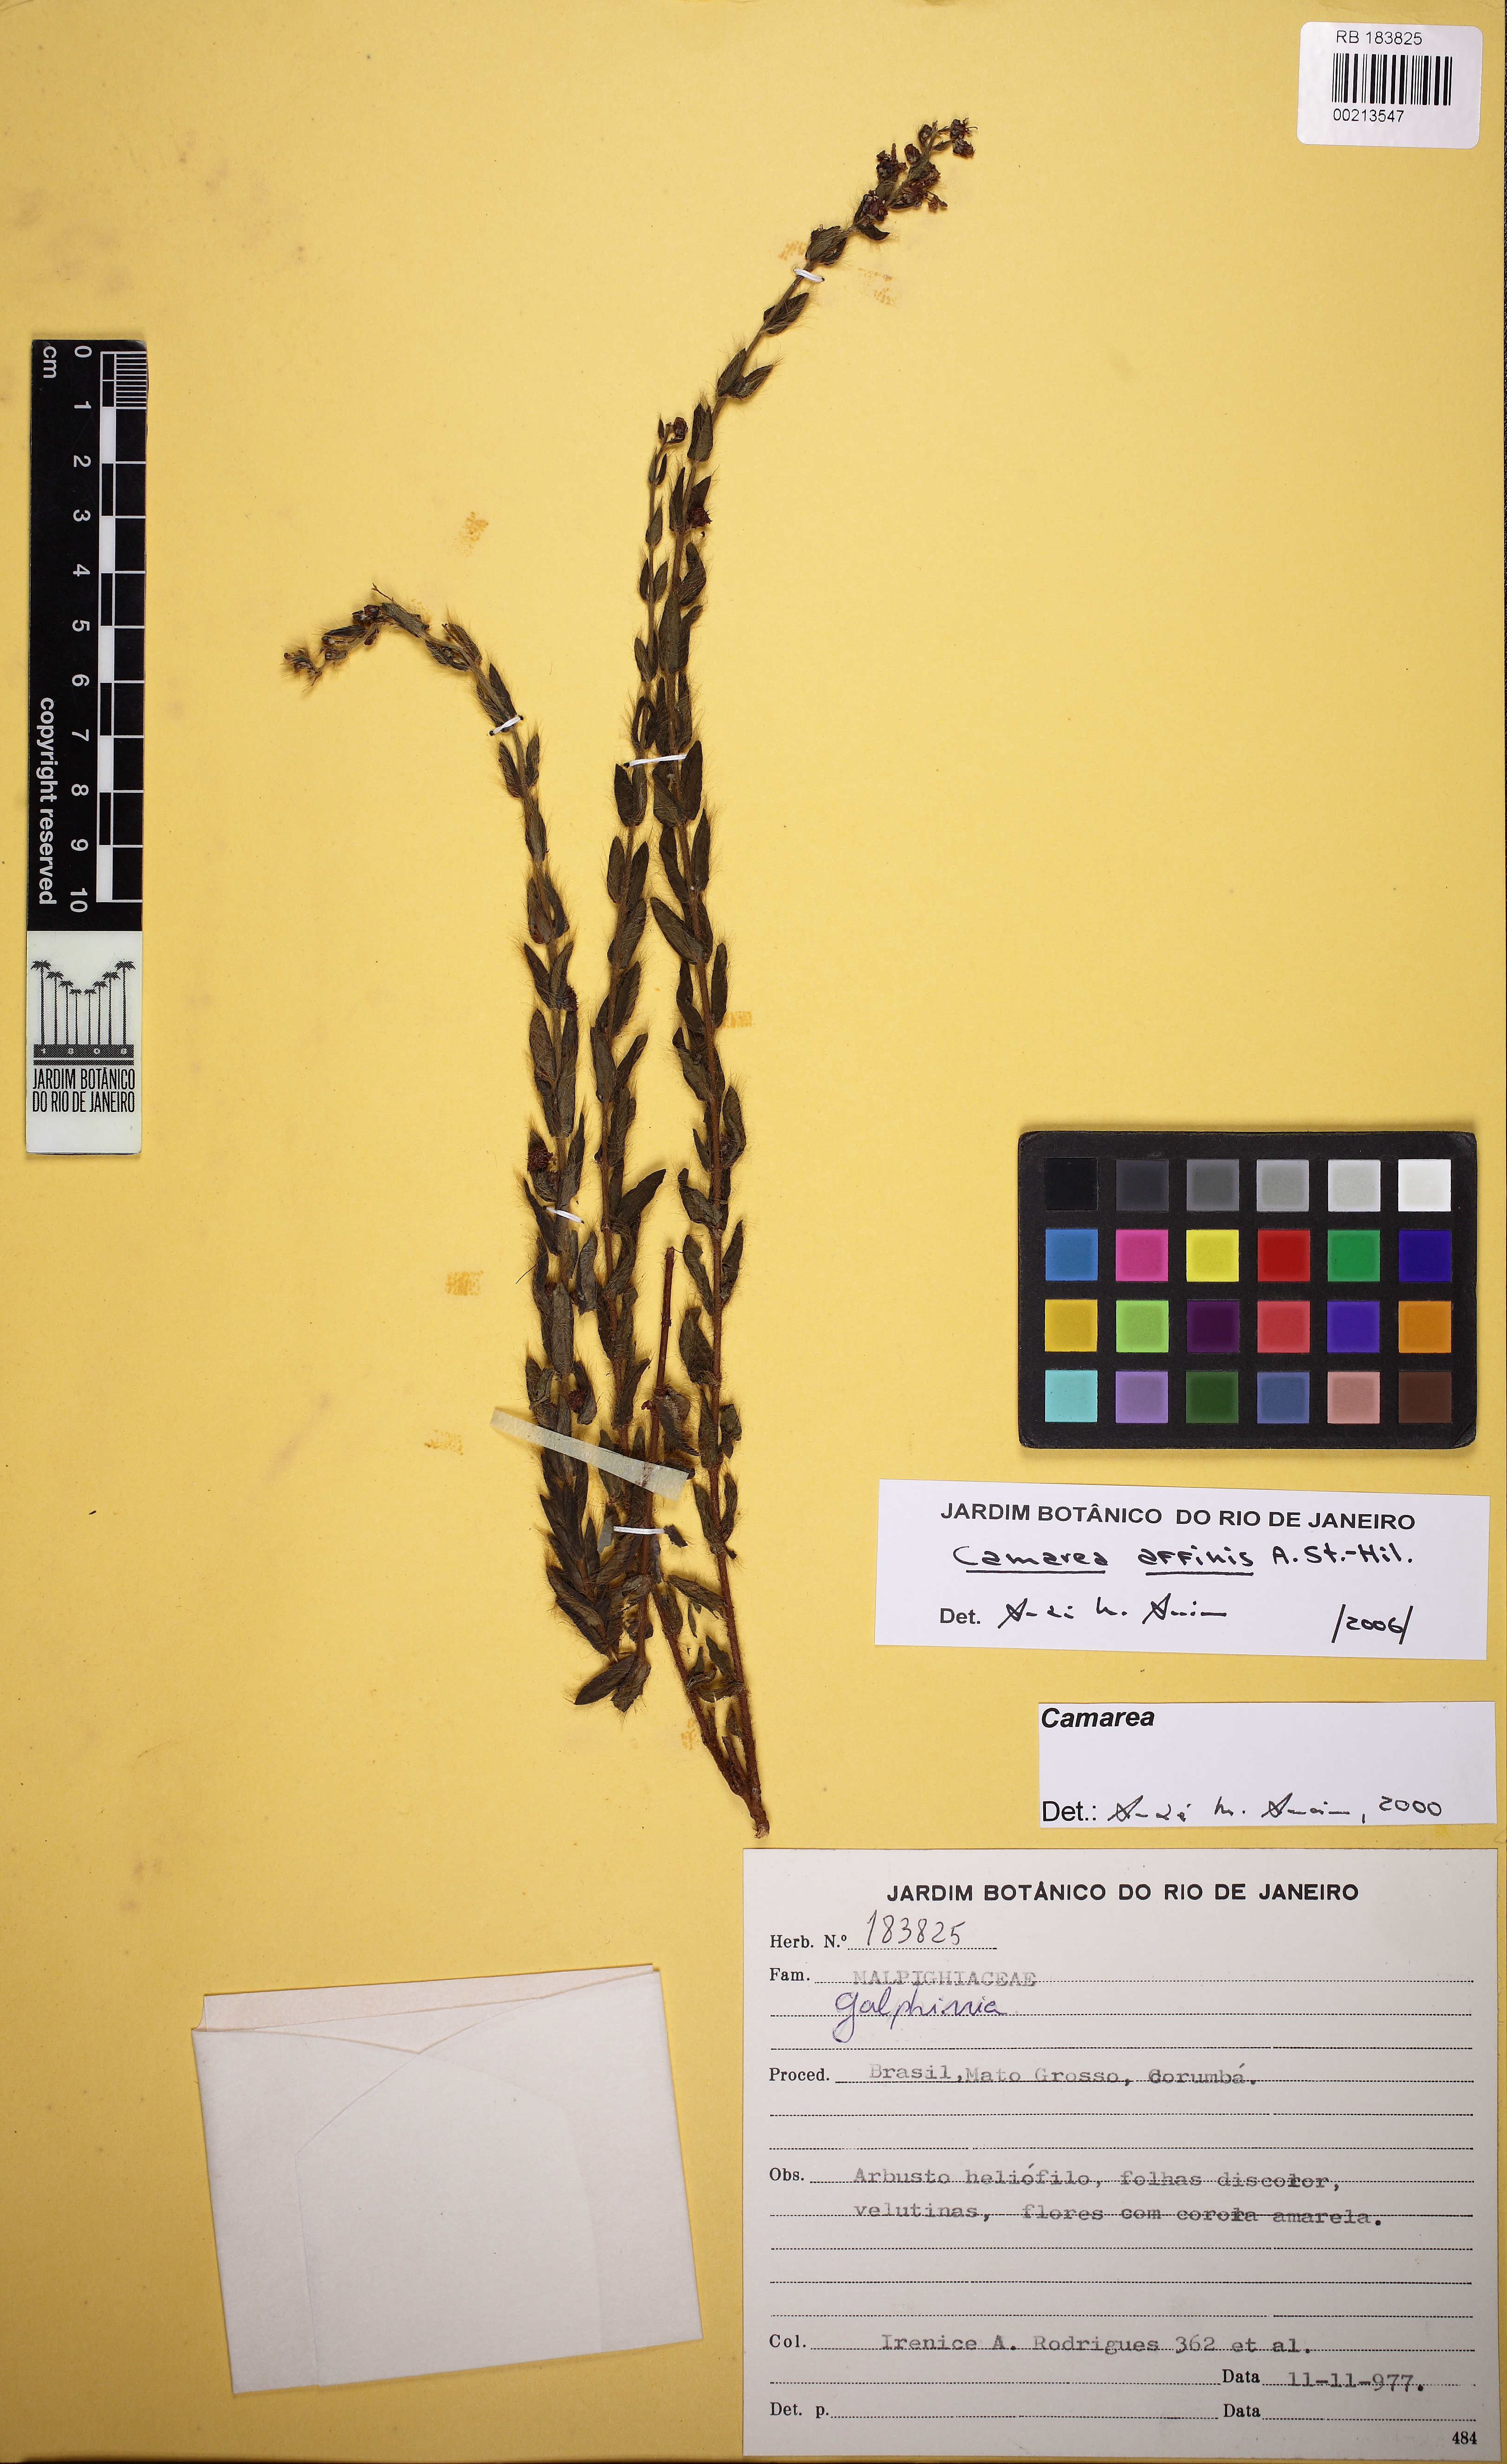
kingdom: Plantae
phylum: Tracheophyta
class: Magnoliopsida
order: Malpighiales
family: Malpighiaceae
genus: Camarea
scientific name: Camarea affinis
